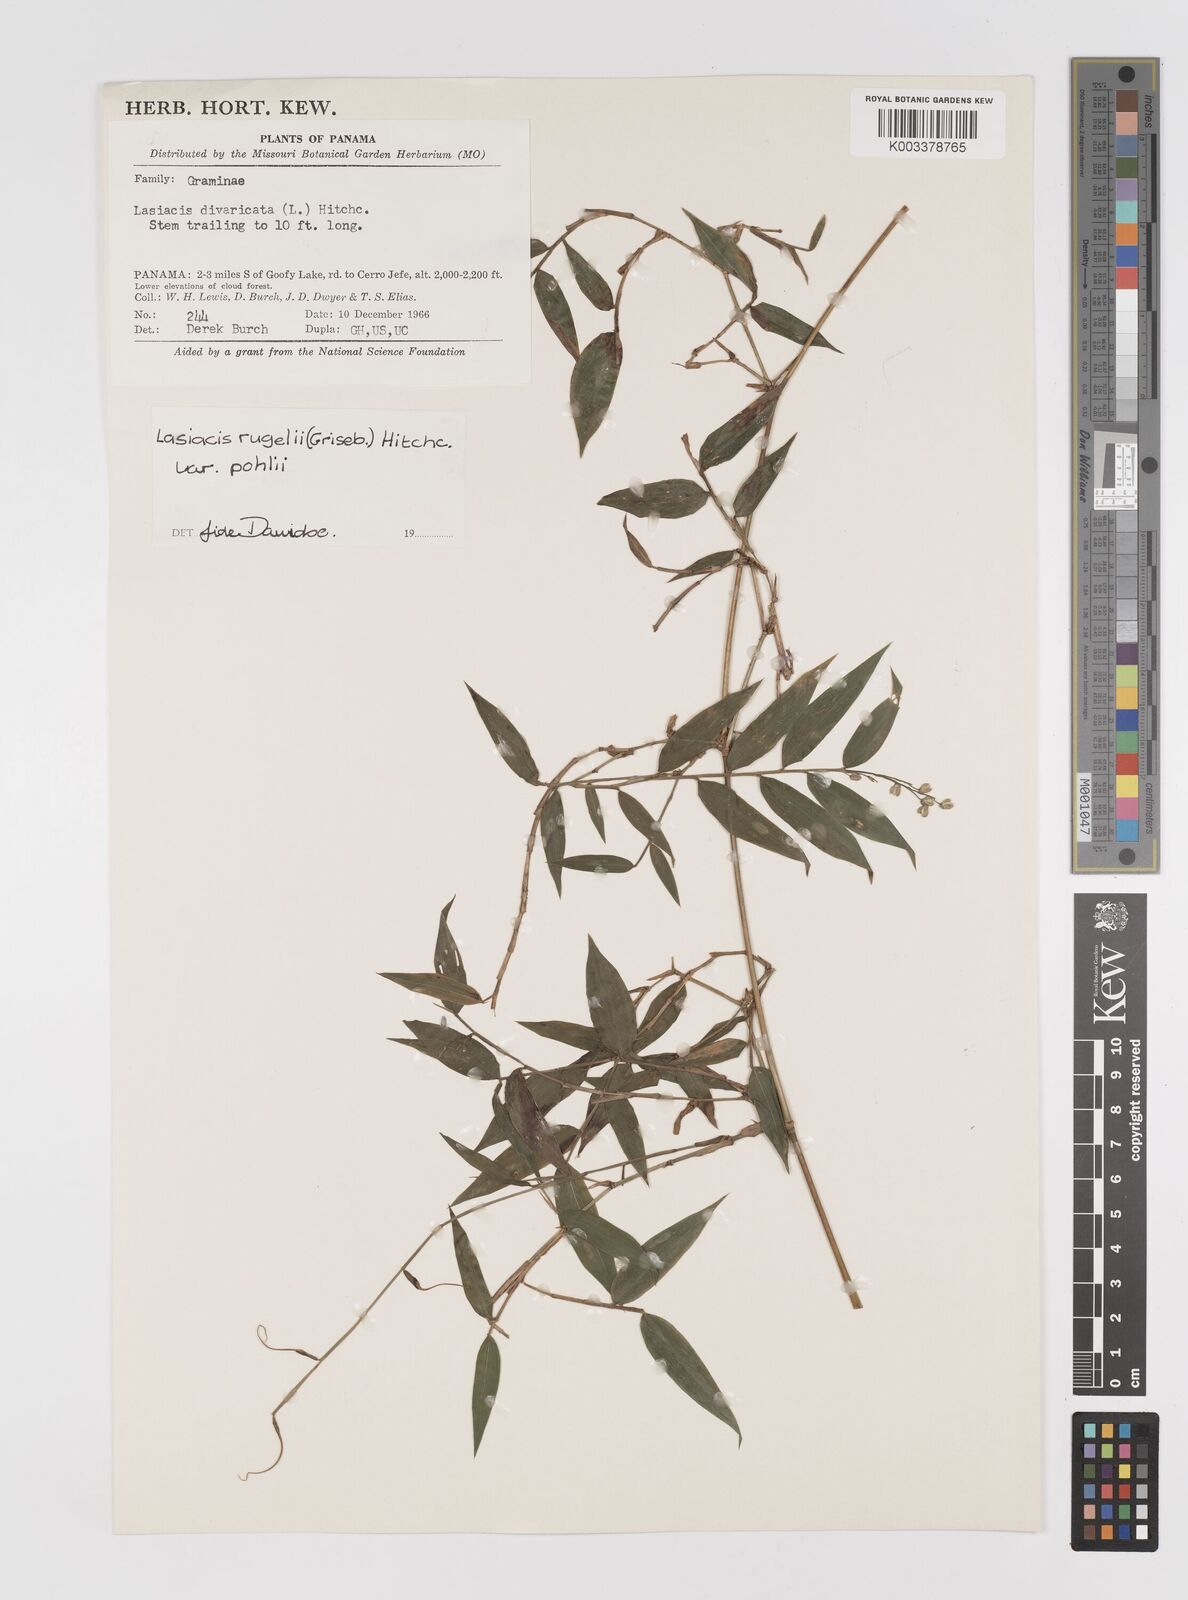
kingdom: Plantae
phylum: Tracheophyta
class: Liliopsida
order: Poales
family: Poaceae
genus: Lasiacis
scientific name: Lasiacis rugelii
